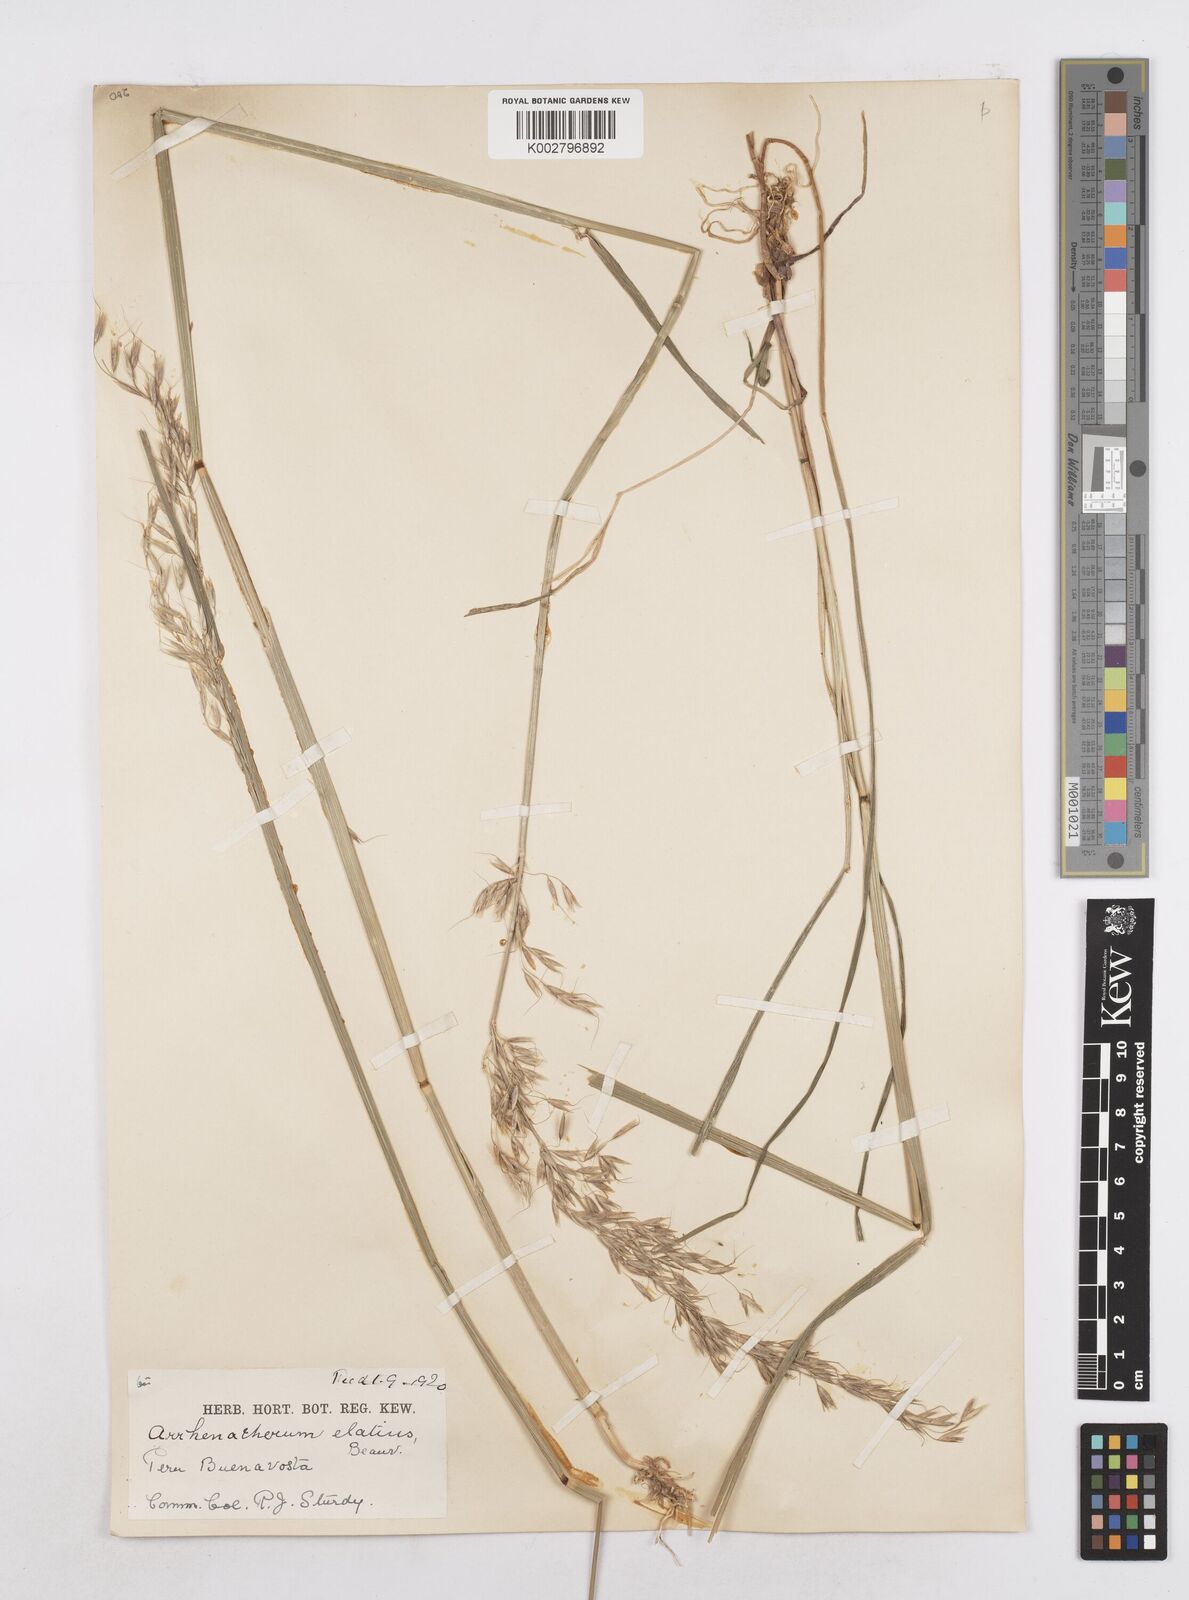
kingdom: Plantae
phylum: Tracheophyta
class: Liliopsida
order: Poales
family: Poaceae
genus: Arrhenatherum
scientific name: Arrhenatherum elatius
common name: Tall oatgrass
